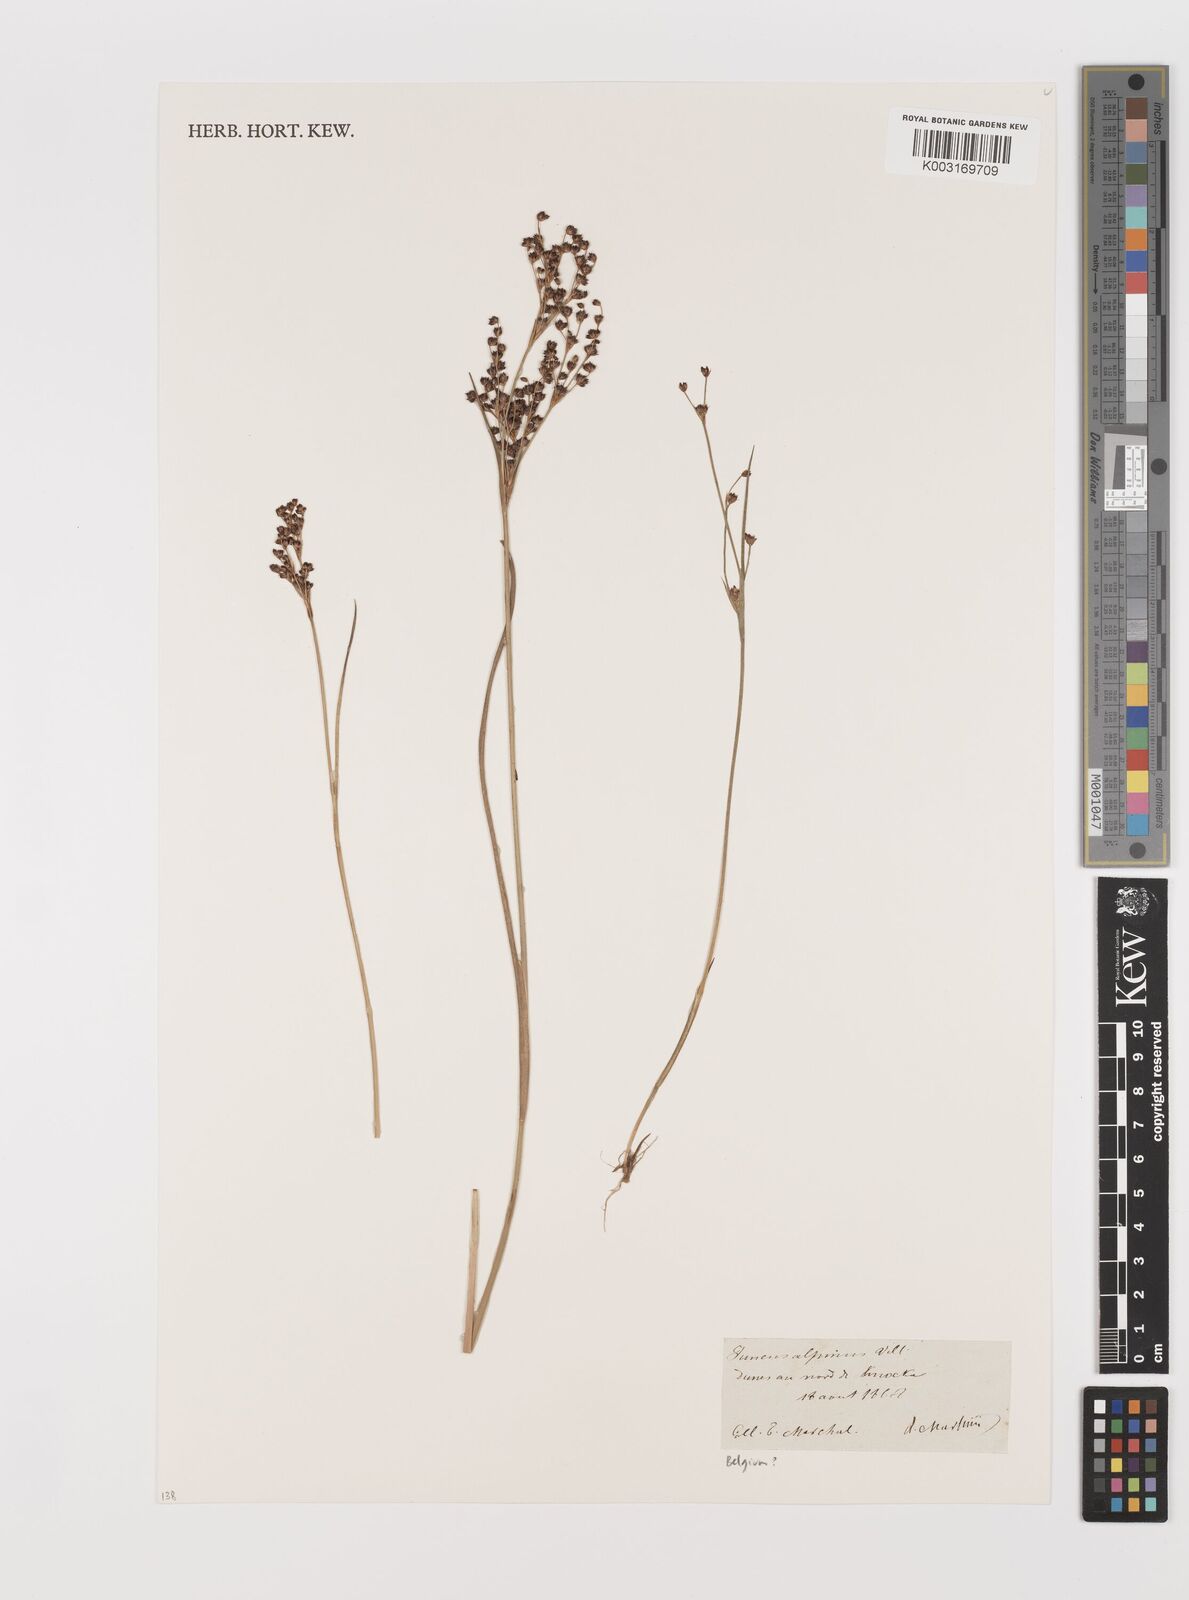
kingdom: Plantae
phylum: Tracheophyta
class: Liliopsida
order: Poales
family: Juncaceae
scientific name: Juncaceae
